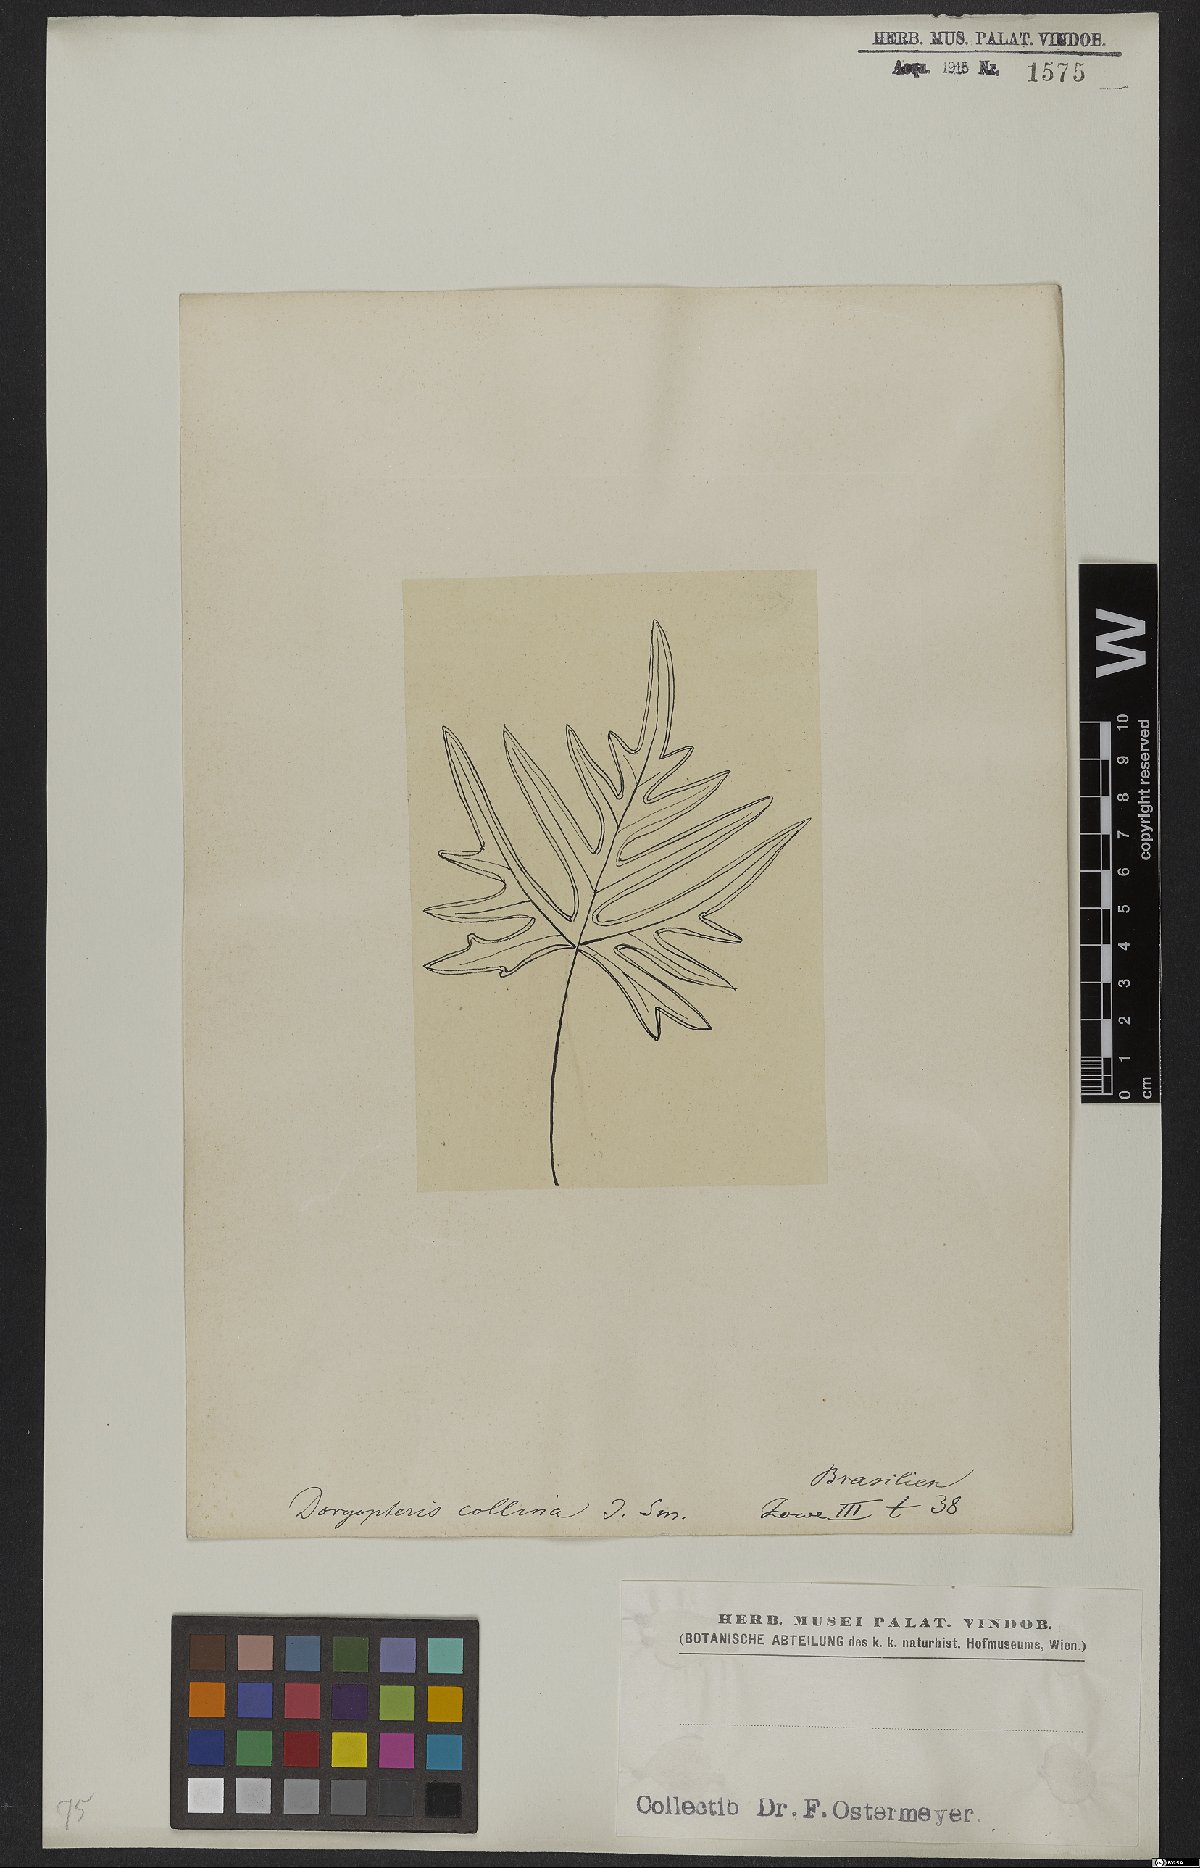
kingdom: Plantae
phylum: Tracheophyta
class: Polypodiopsida
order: Polypodiales
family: Pteridaceae
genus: Doryopteris
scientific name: Doryopteris collina
